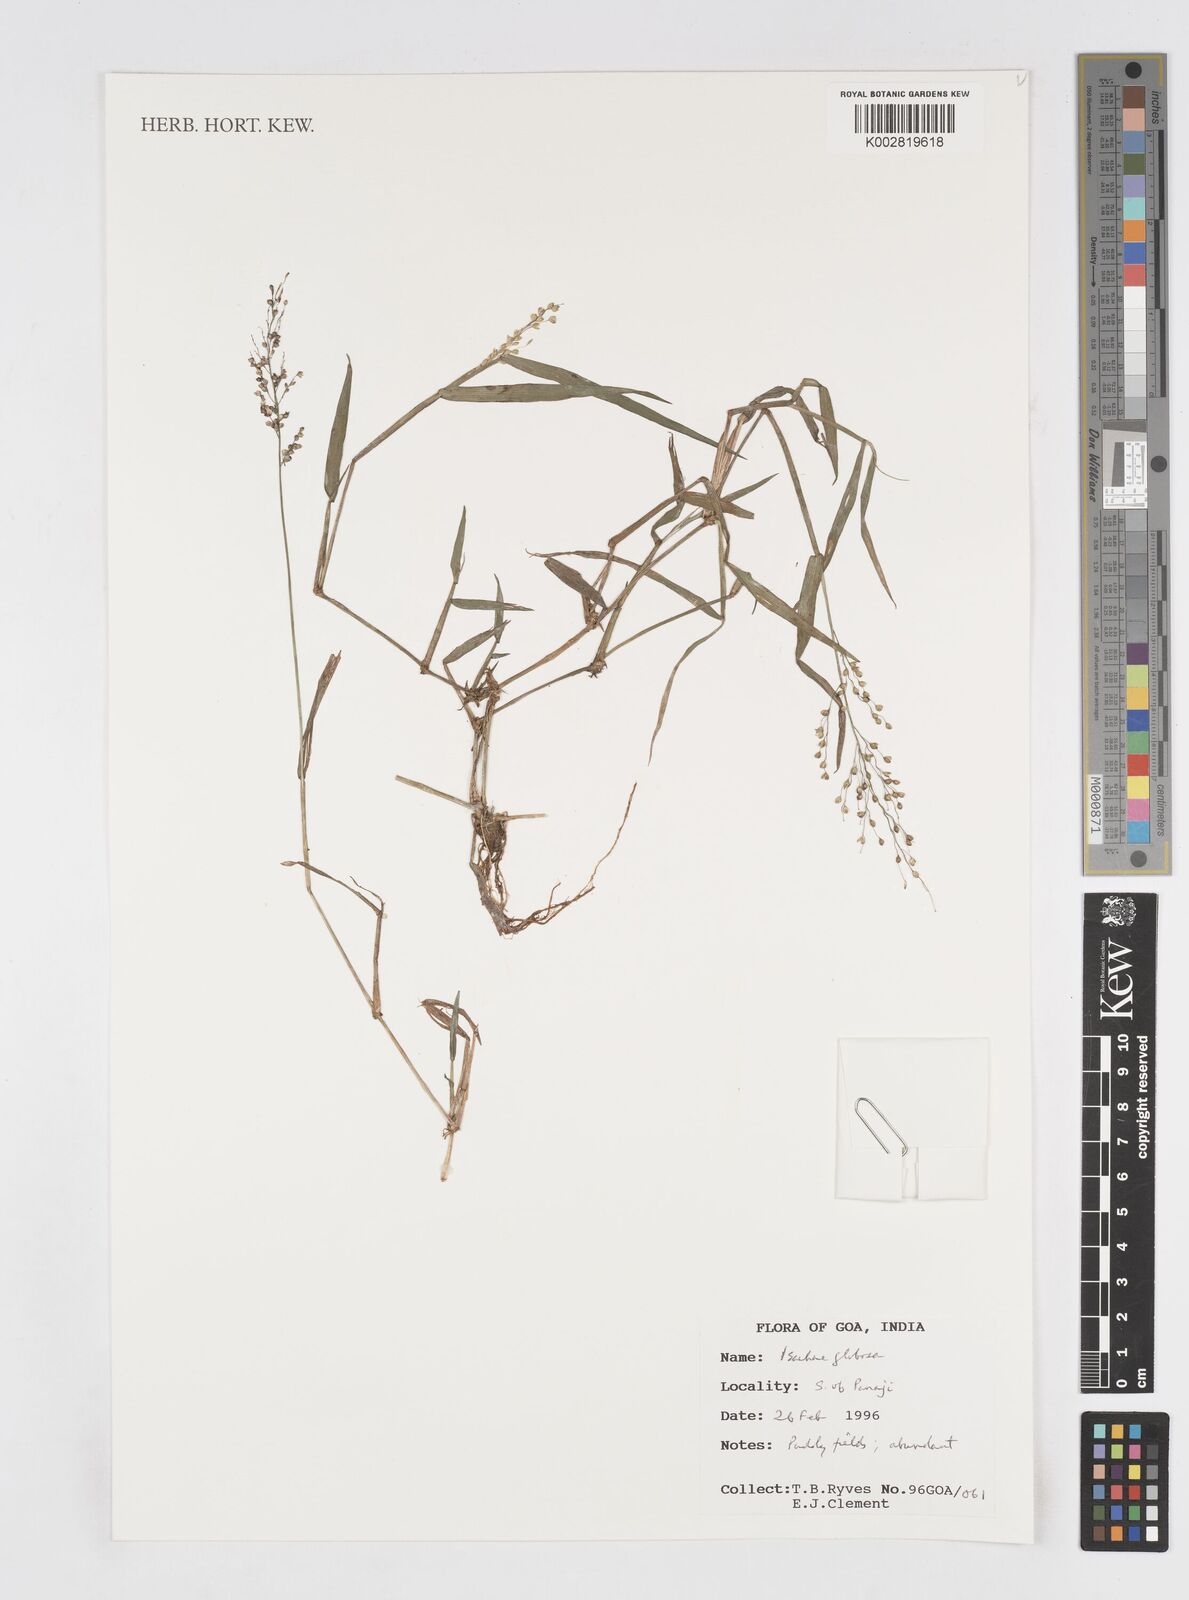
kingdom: Plantae
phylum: Tracheophyta
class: Liliopsida
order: Poales
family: Poaceae
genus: Isachne
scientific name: Isachne globosa
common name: Swamp millet
